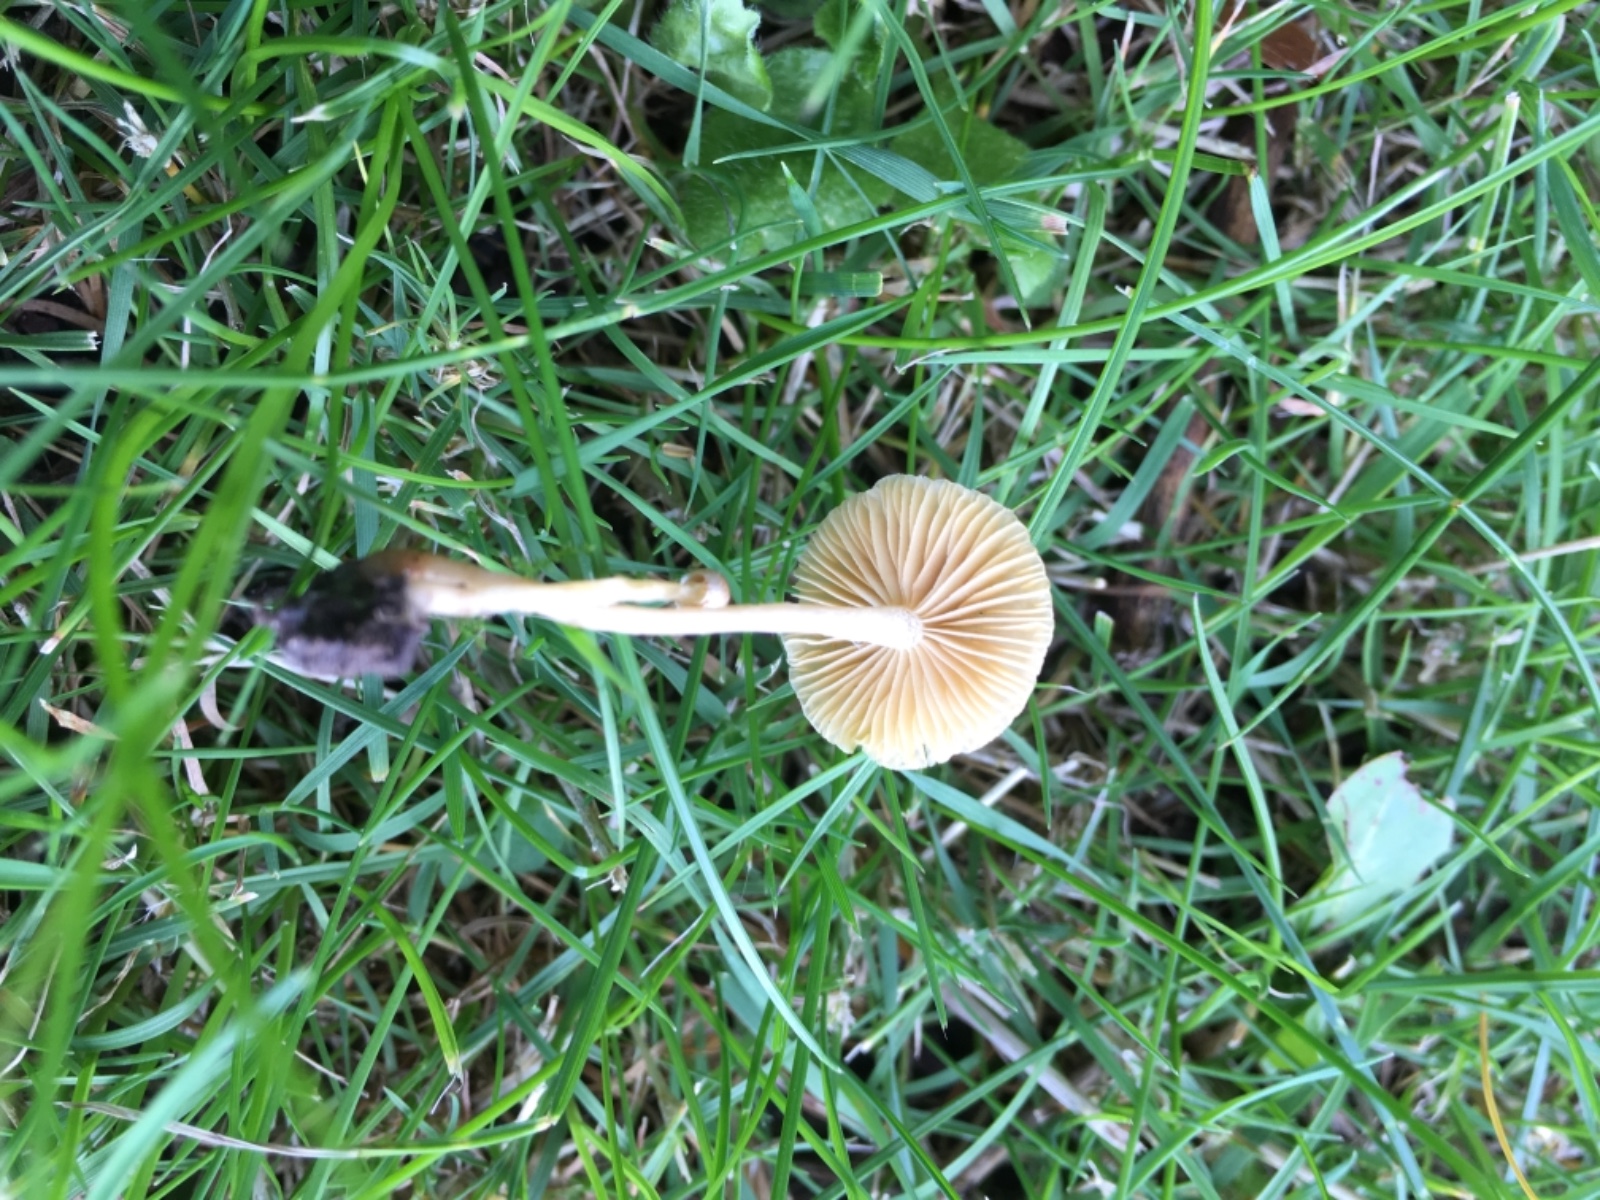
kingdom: Fungi
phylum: Basidiomycota
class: Agaricomycetes
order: Agaricales
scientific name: Agaricales
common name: champignonordenen
